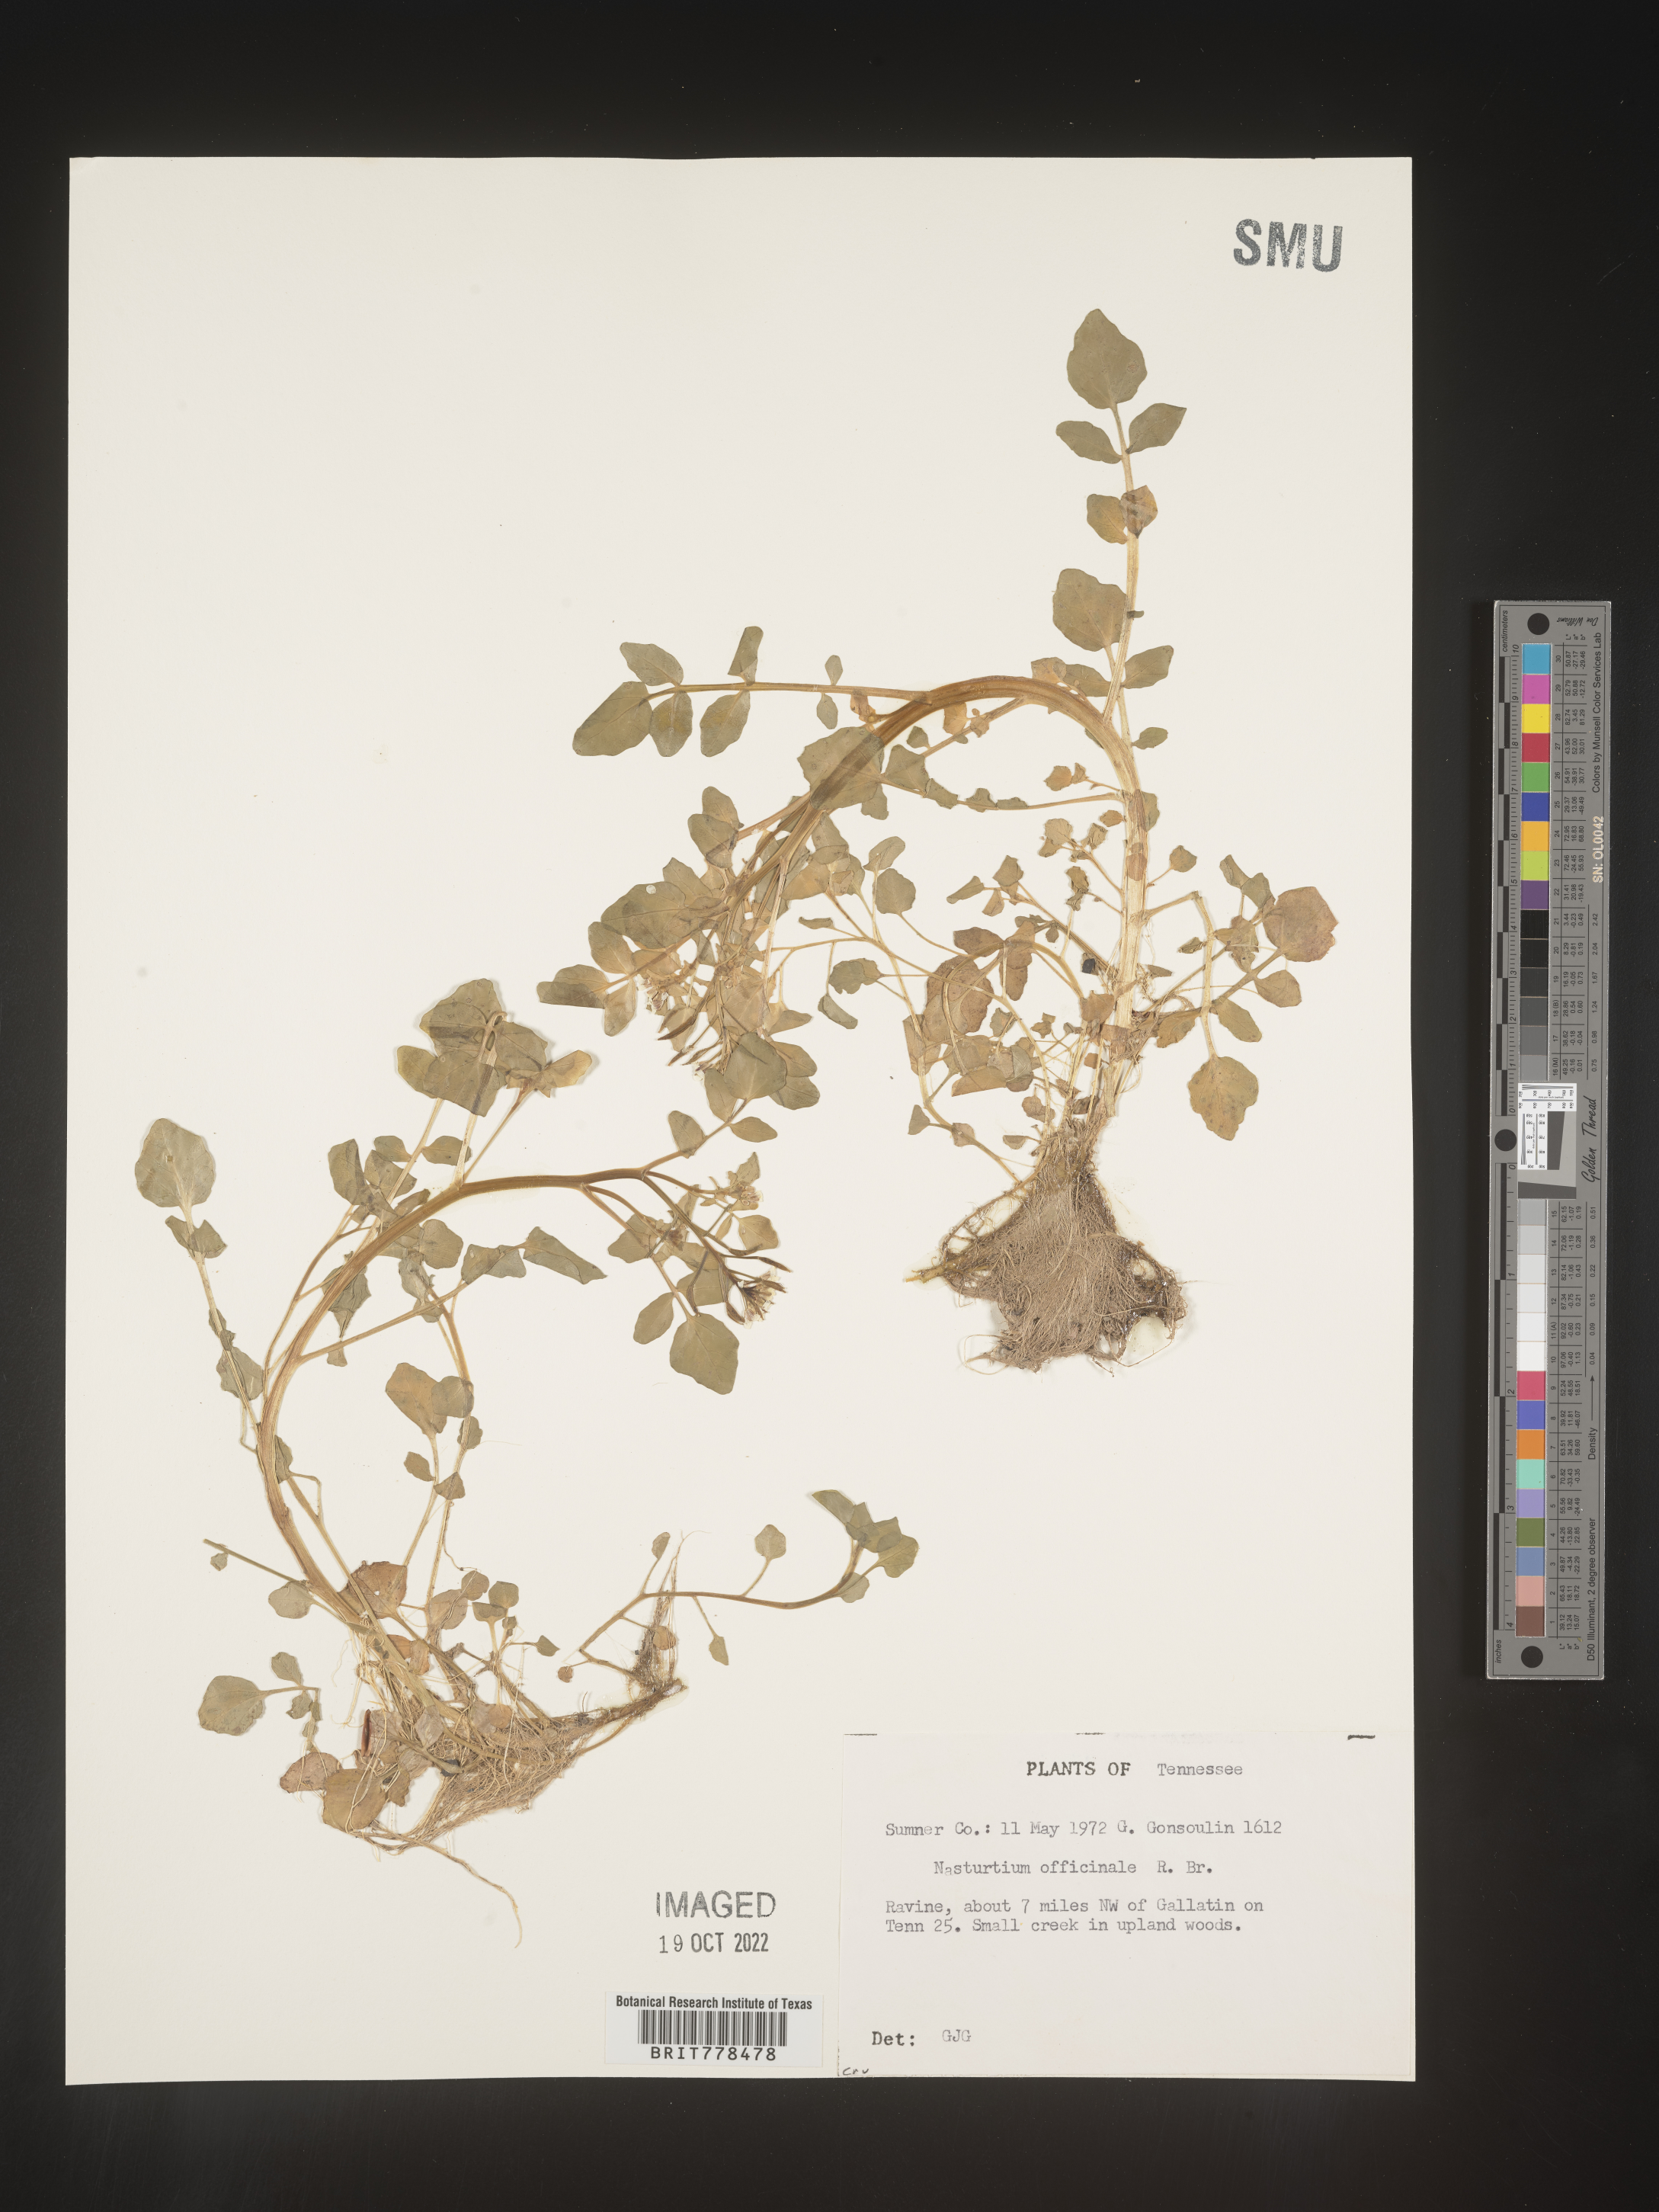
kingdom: Plantae
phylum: Tracheophyta
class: Magnoliopsida
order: Brassicales
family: Brassicaceae
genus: Nasturtium
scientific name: Nasturtium officinale
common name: Watercress
